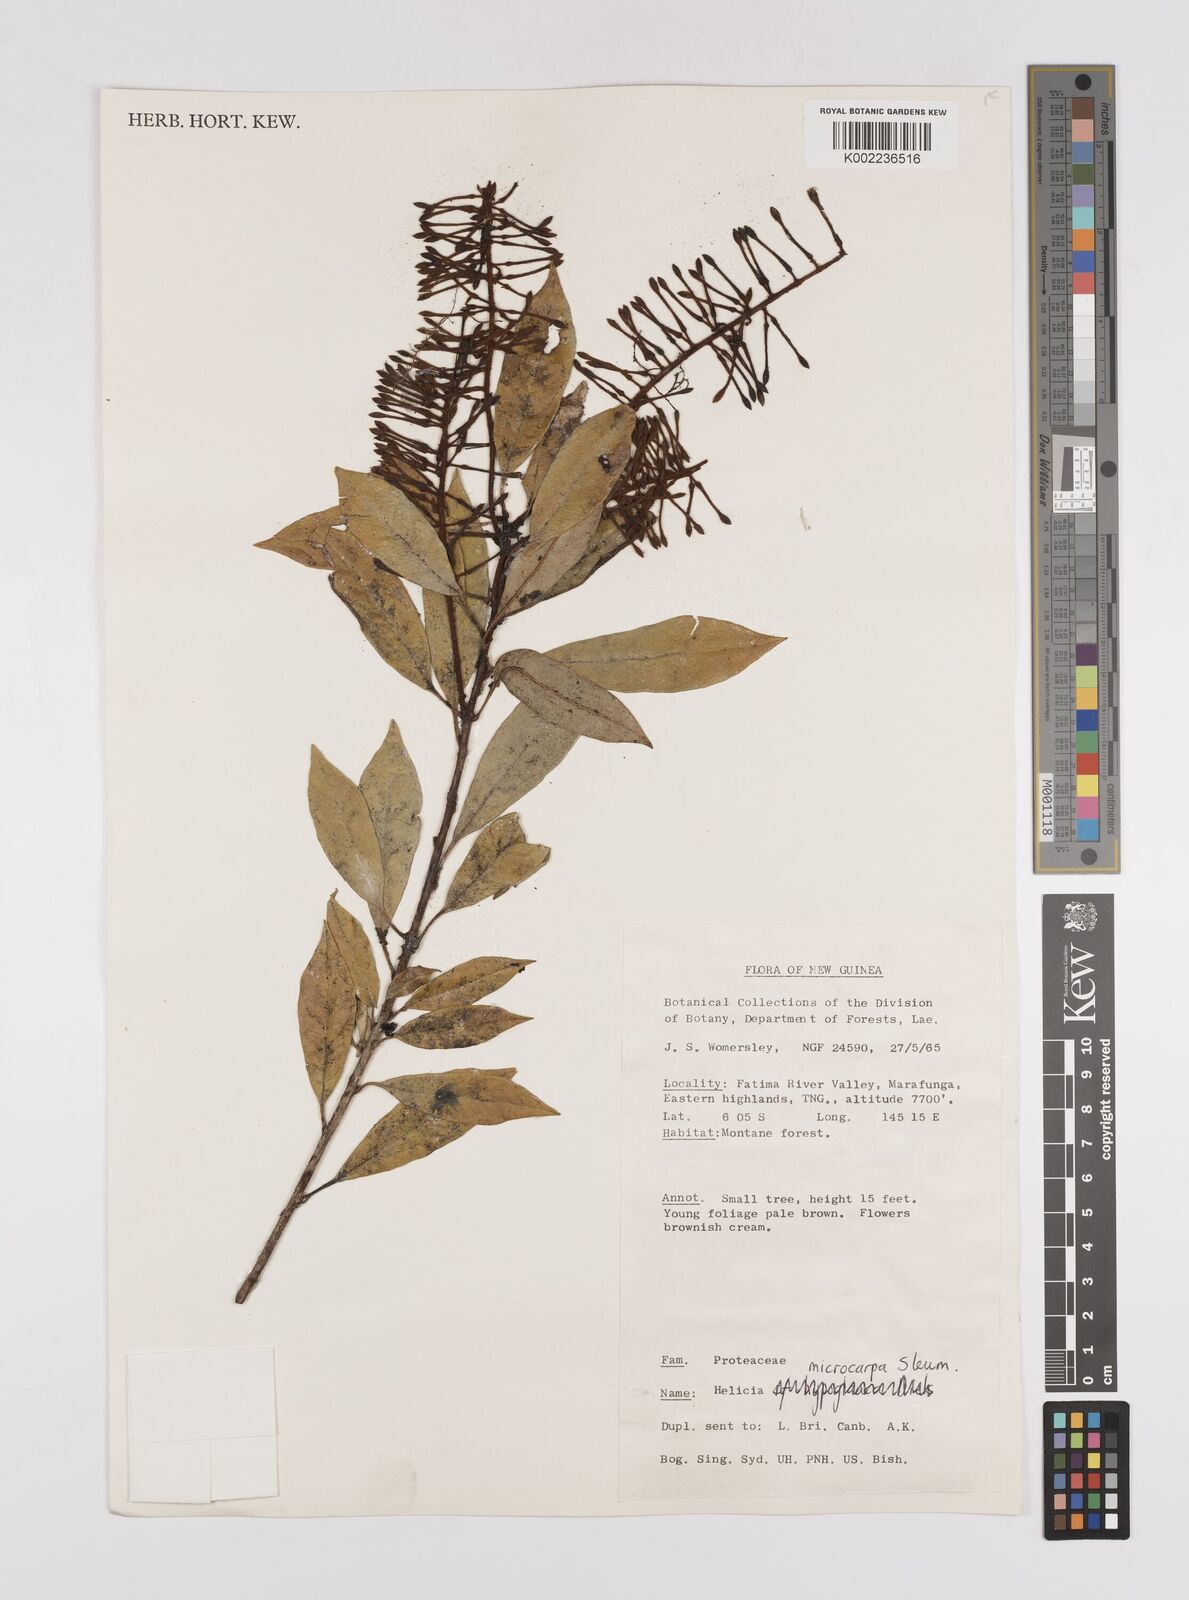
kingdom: Plantae
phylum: Tracheophyta
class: Magnoliopsida
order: Proteales
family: Proteaceae
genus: Helicia
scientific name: Helicia microphylla
